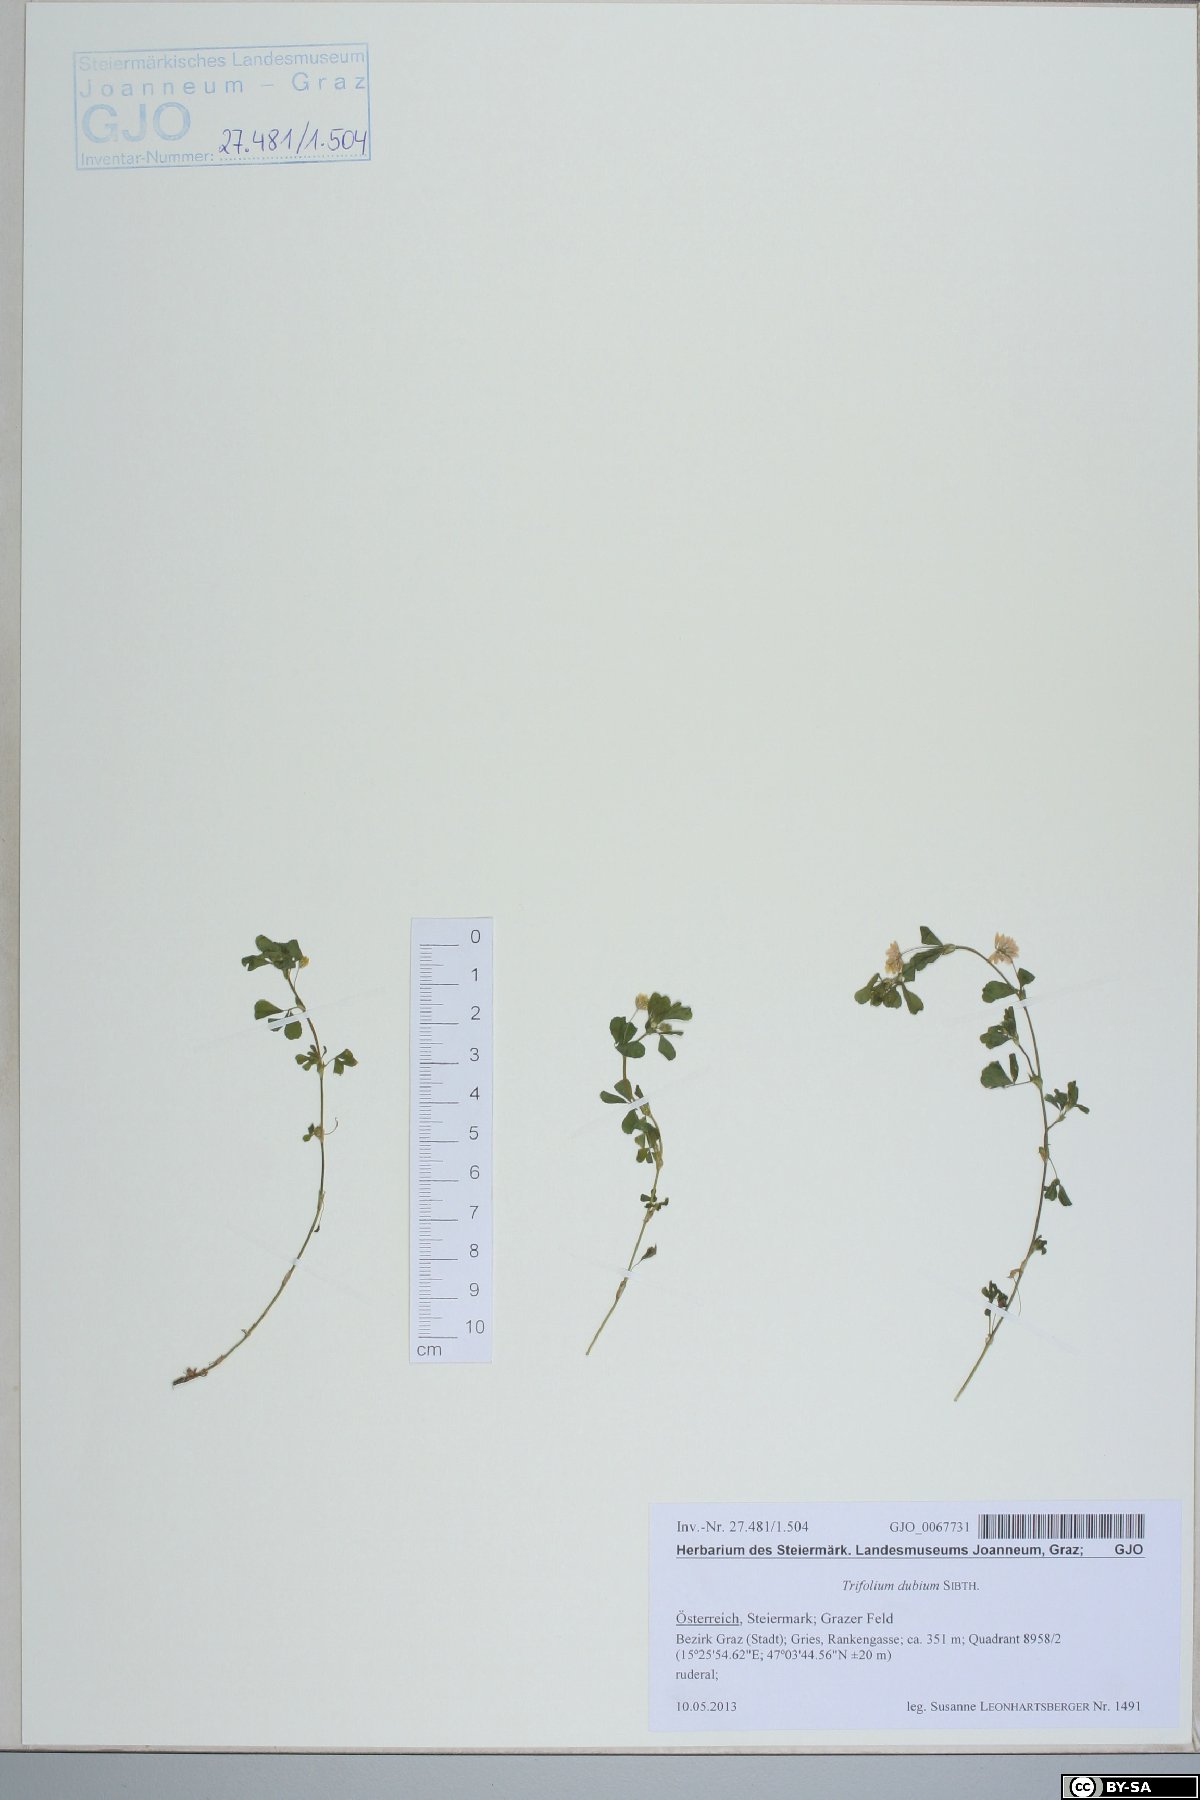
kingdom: Plantae
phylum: Tracheophyta
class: Magnoliopsida
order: Fabales
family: Fabaceae
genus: Trifolium
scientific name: Trifolium dubium
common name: Suckling clover
